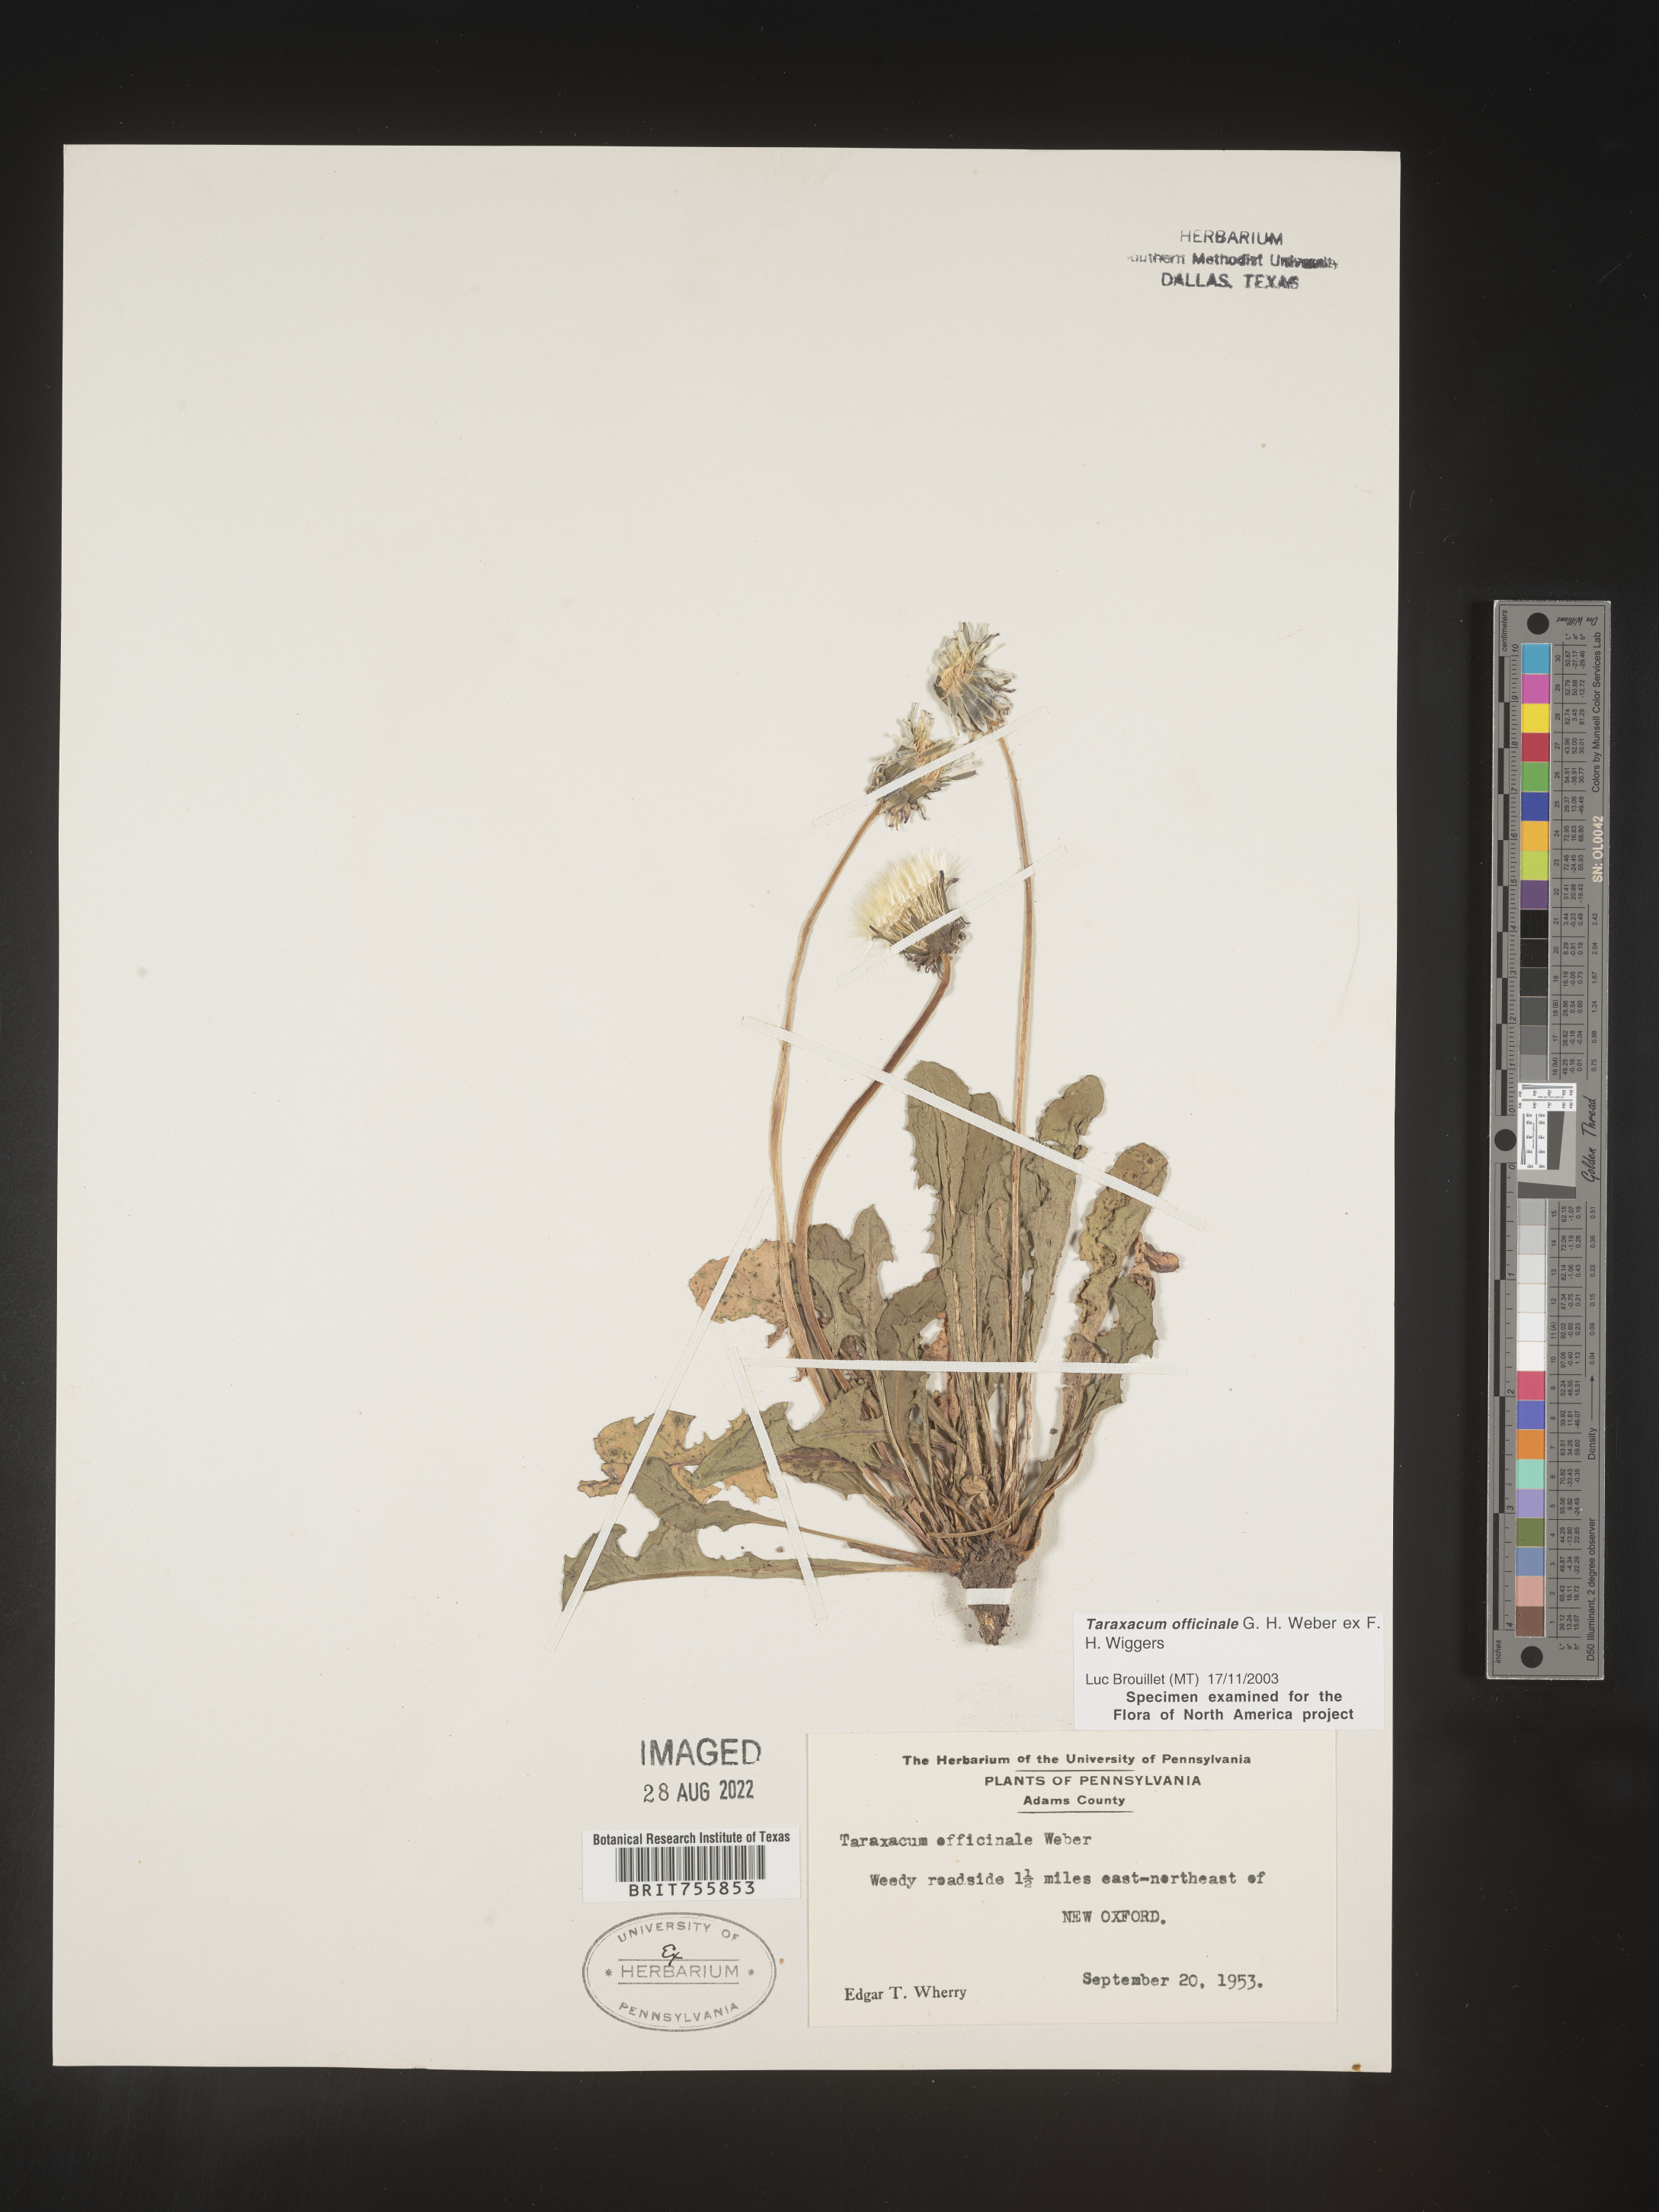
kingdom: Plantae
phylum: Tracheophyta
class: Magnoliopsida
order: Asterales
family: Asteraceae
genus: Taraxacum
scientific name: Taraxacum officinale
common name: Common dandelion
